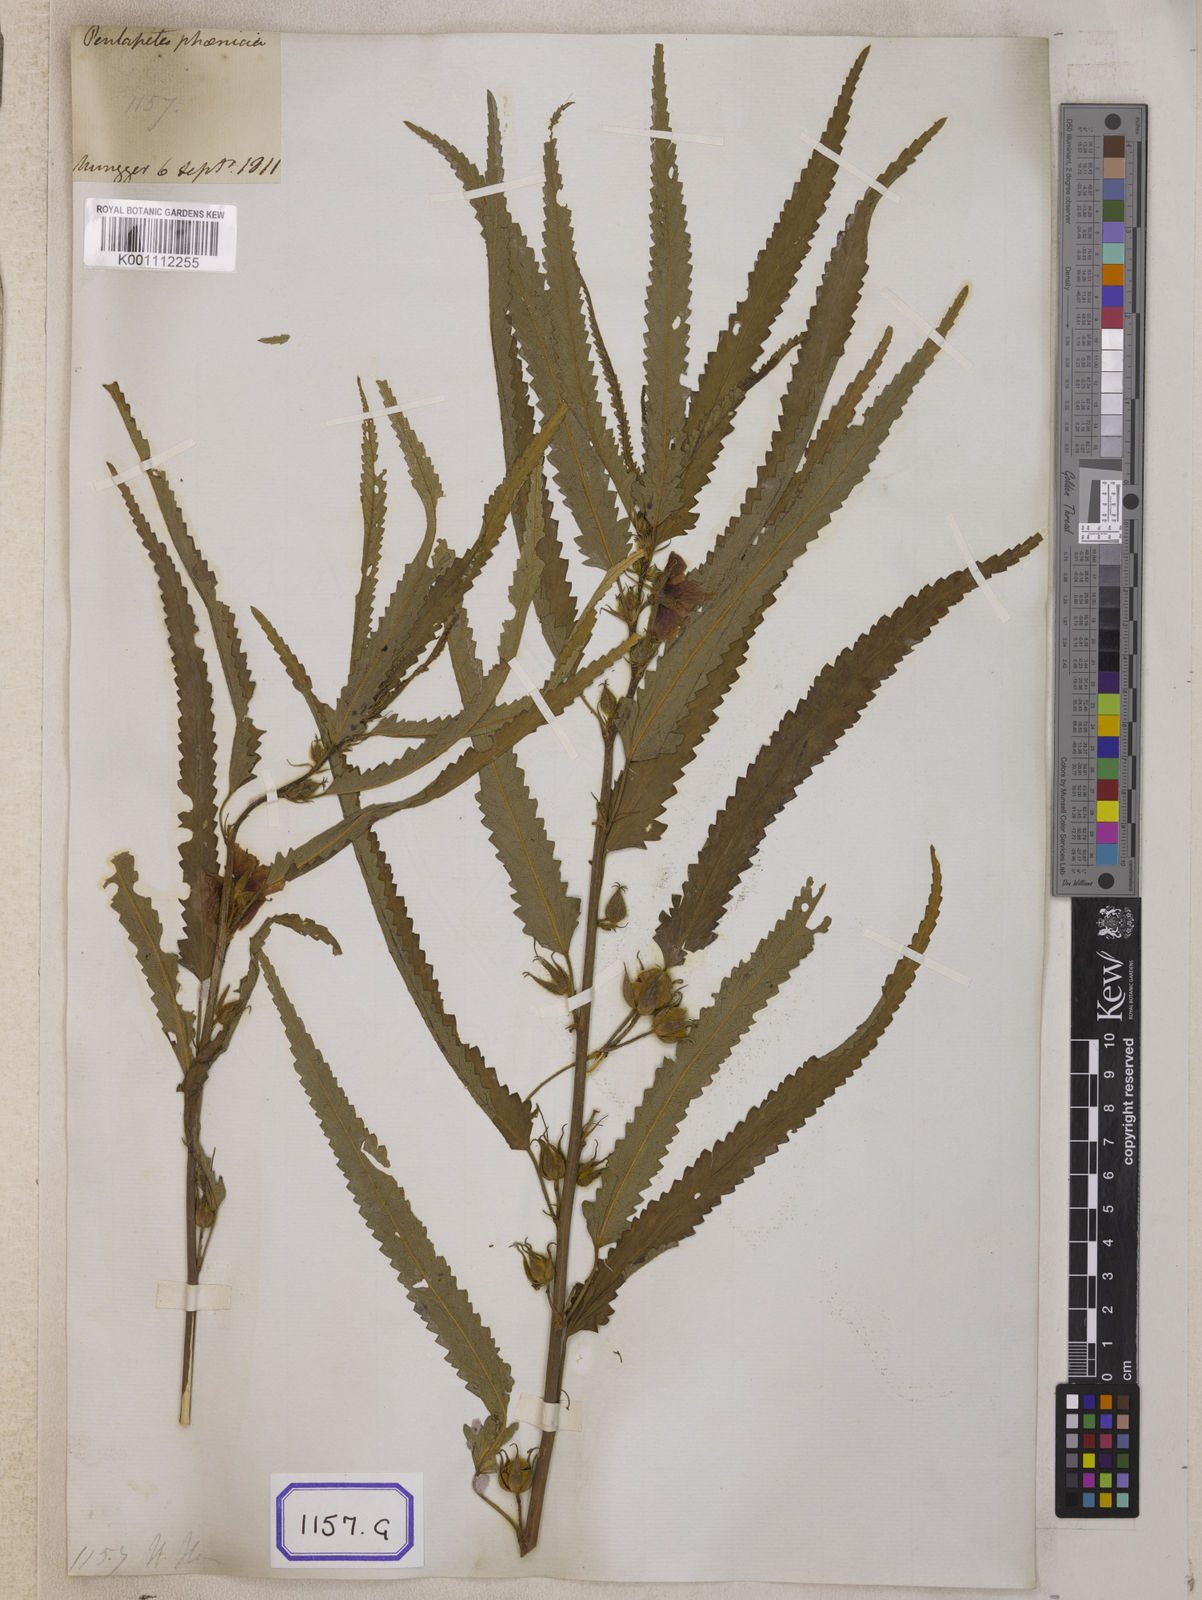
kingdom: Plantae
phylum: Tracheophyta
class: Magnoliopsida
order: Malvales
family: Malvaceae
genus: Pentapetes
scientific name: Pentapetes phoenicea
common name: Copper-cups
